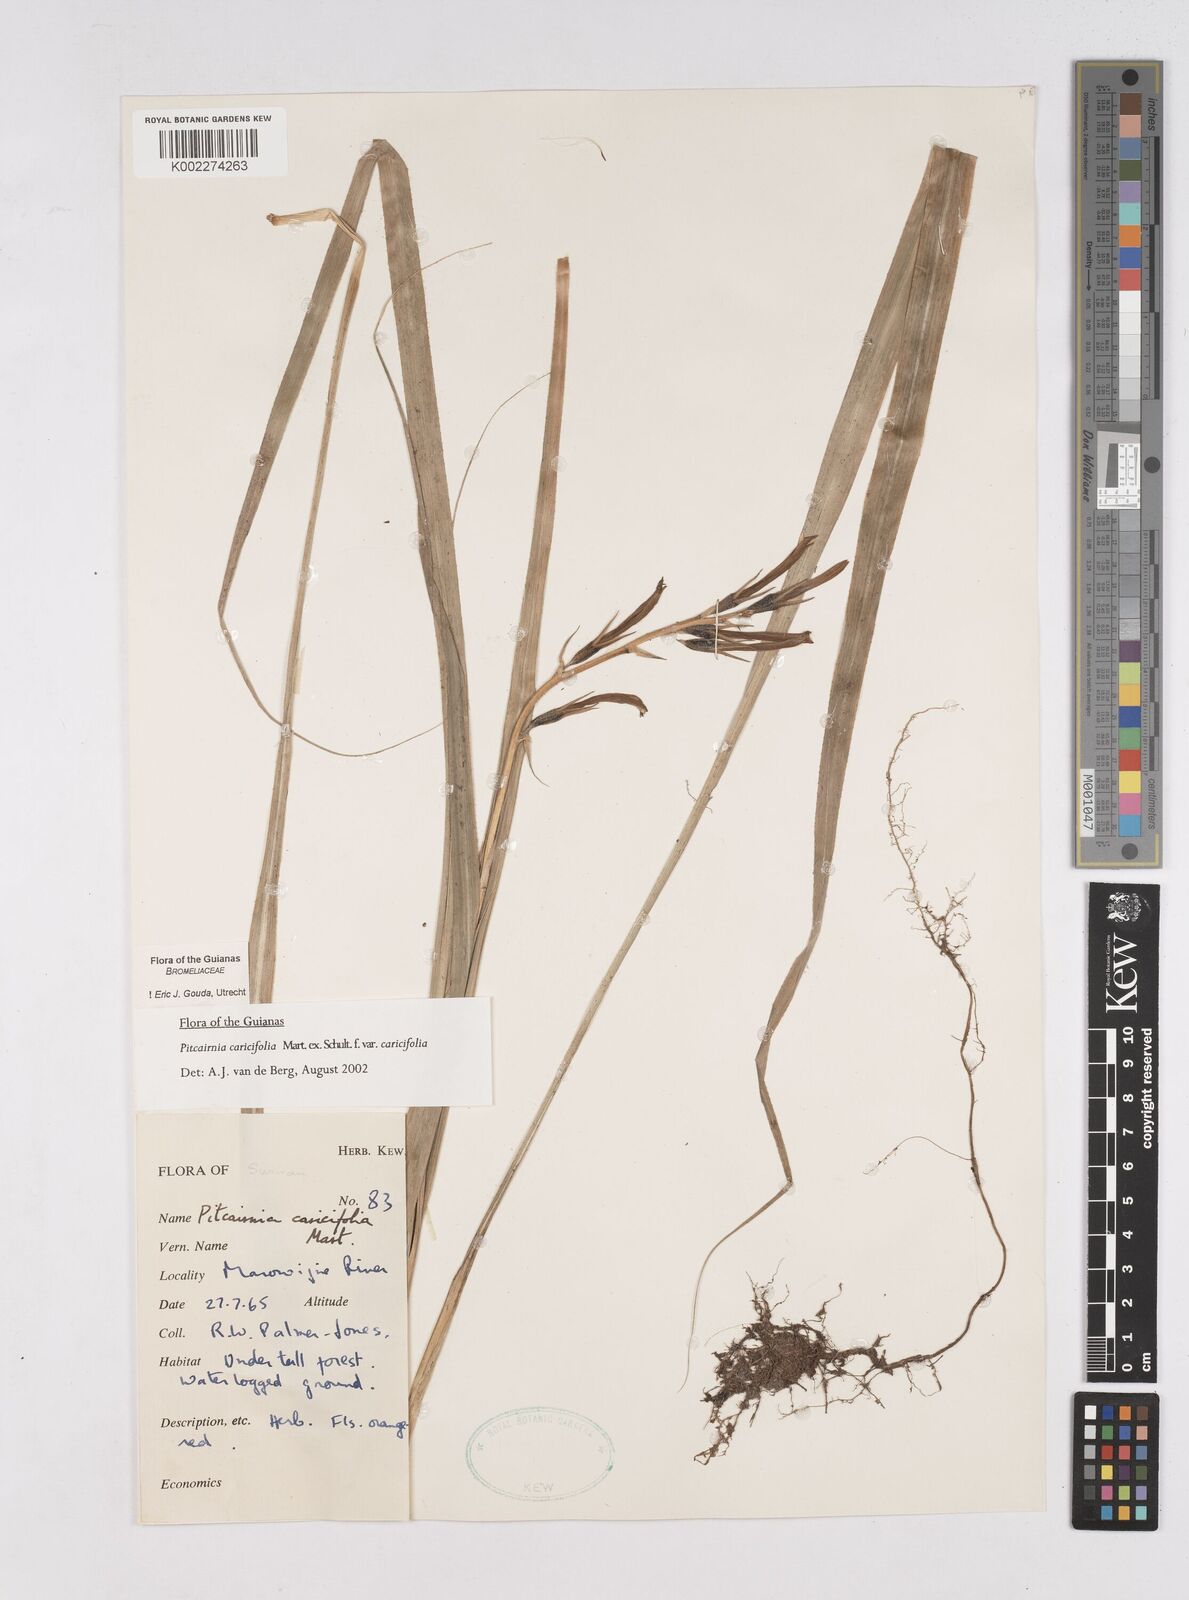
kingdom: Plantae
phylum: Tracheophyta
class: Liliopsida
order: Poales
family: Bromeliaceae
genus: Pitcairnia
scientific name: Pitcairnia caricifolia
